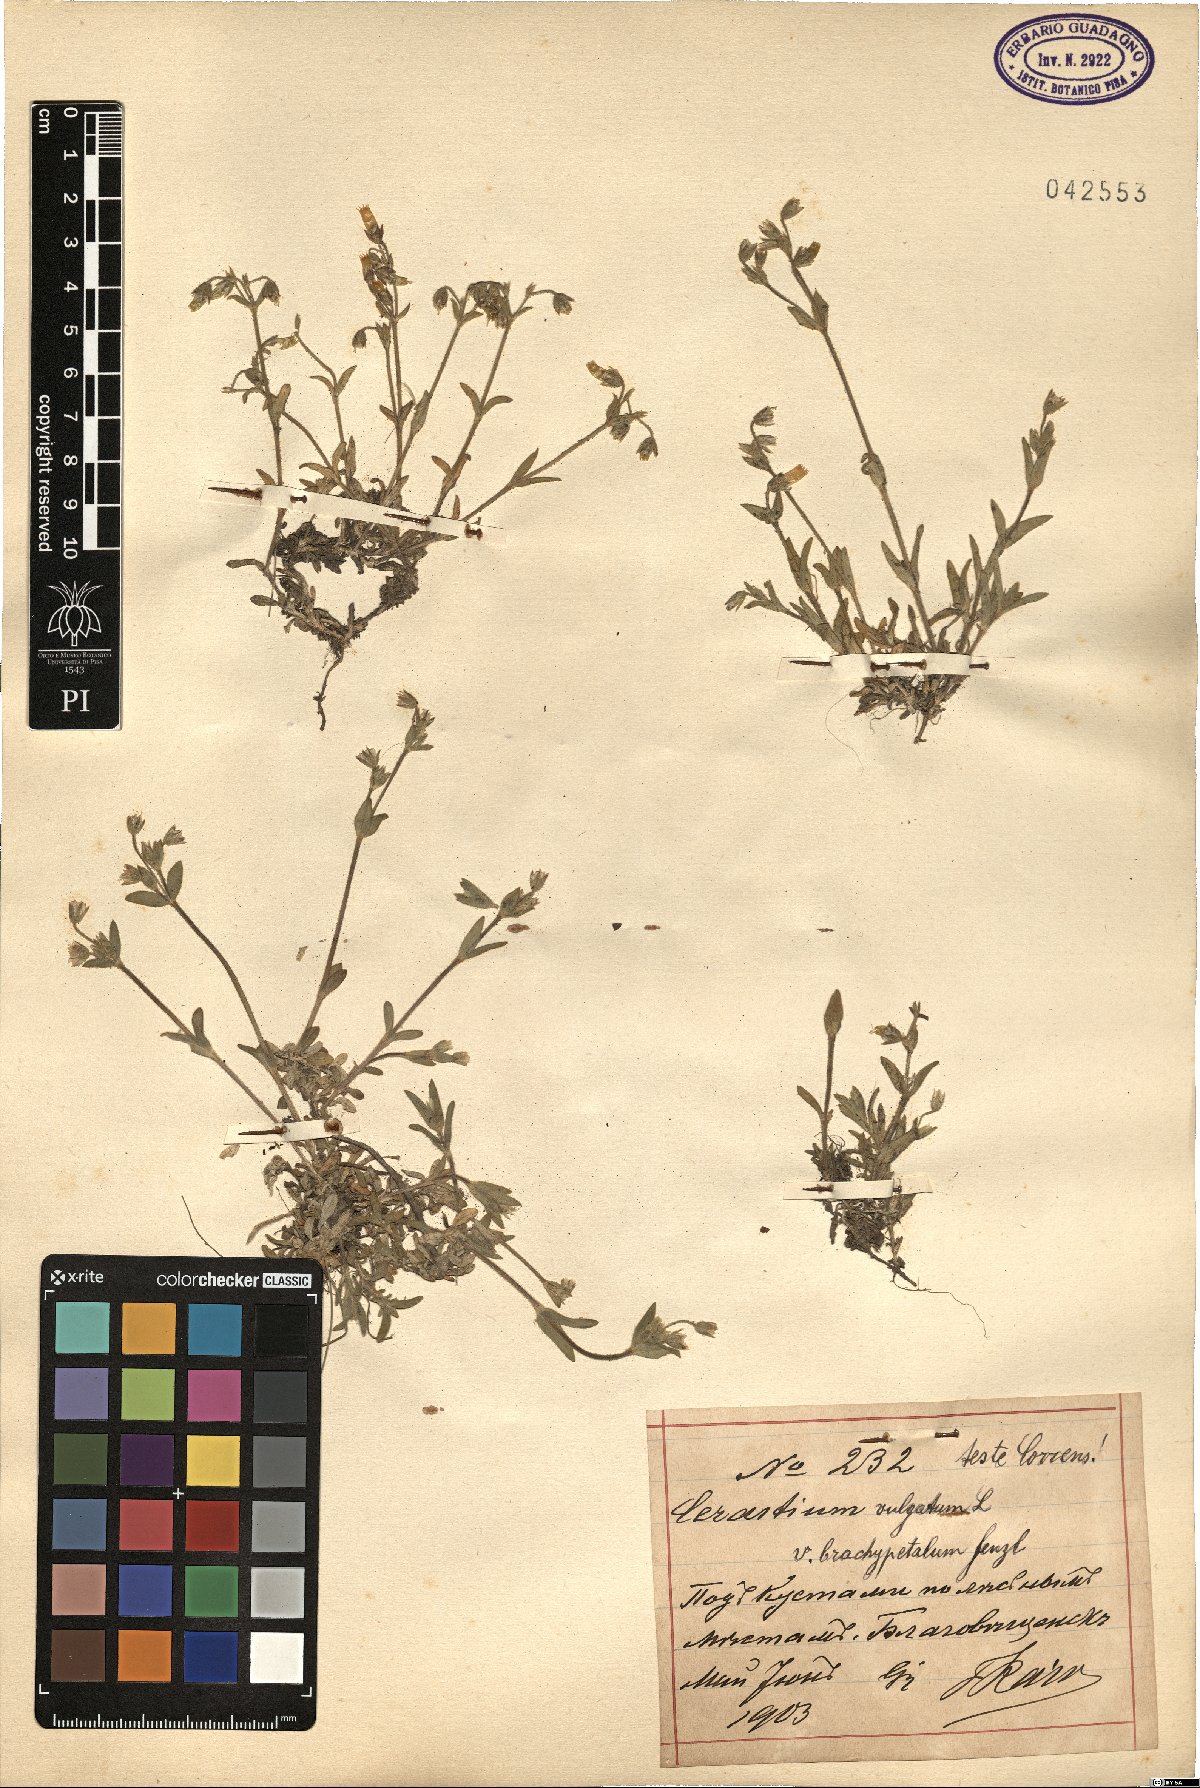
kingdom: Plantae
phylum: Tracheophyta
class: Magnoliopsida
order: Caryophyllales
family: Caryophyllaceae
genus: Cerastium
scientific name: Cerastium brachypetalum
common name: Grey mouse-ear
